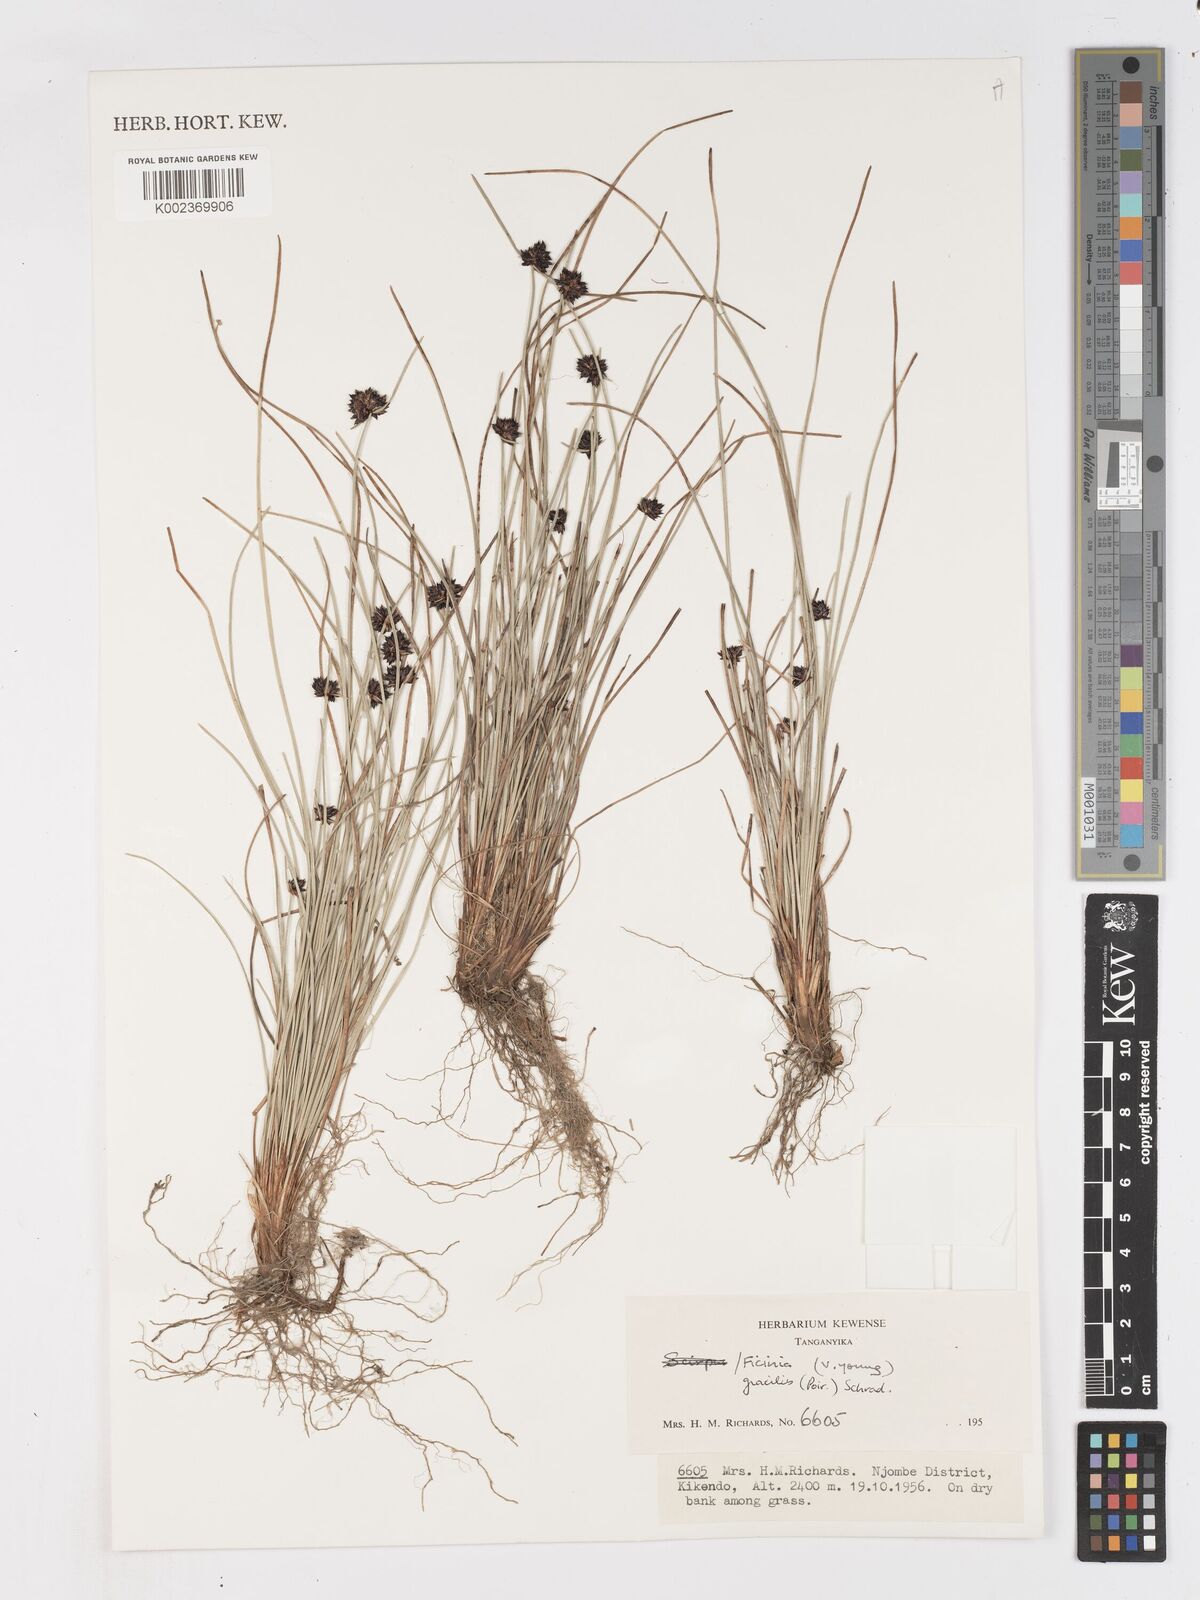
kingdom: Plantae
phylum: Tracheophyta
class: Liliopsida
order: Poales
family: Cyperaceae
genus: Ficinia
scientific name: Ficinia gracilis
